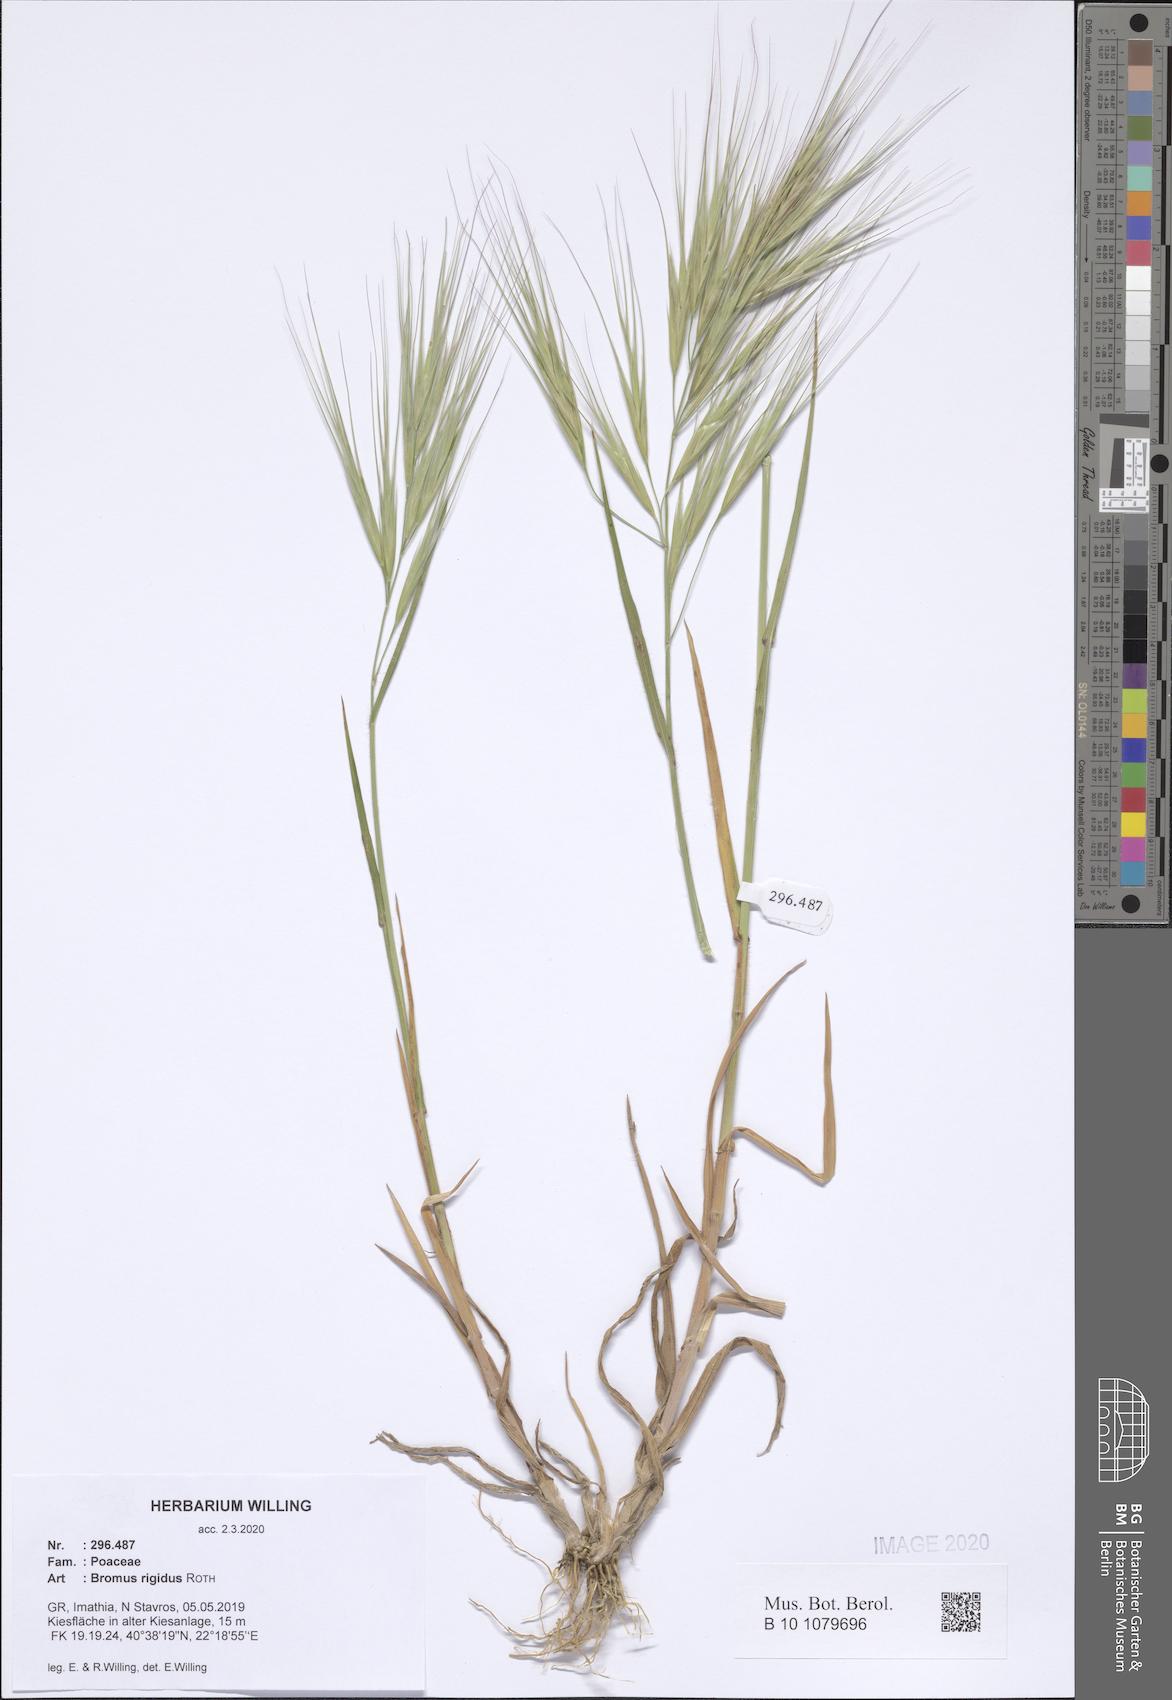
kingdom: Plantae
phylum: Tracheophyta
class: Liliopsida
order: Poales
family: Poaceae
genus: Bromus
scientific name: Bromus rigidus
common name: Ripgut brome
